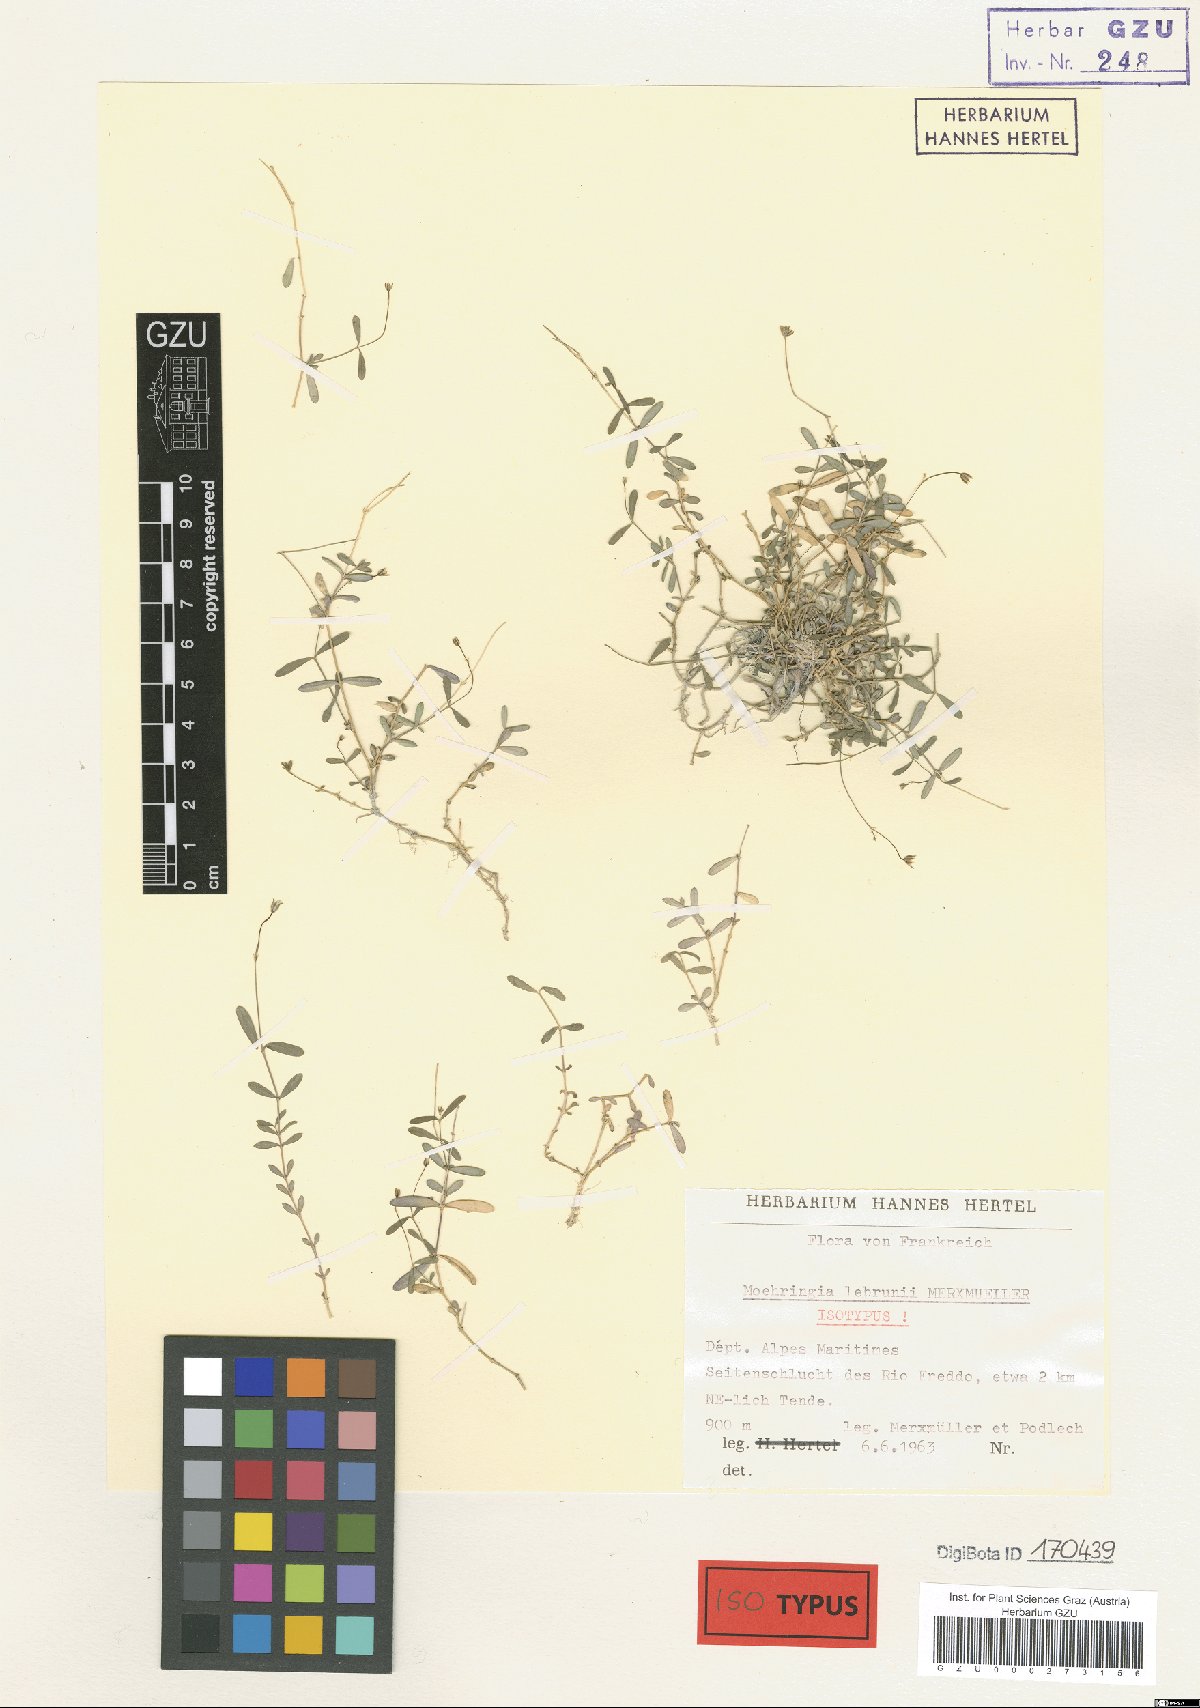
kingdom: Plantae
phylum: Tracheophyta
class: Magnoliopsida
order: Caryophyllales
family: Caryophyllaceae
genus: Moehringia
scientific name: Moehringia lebrunii
